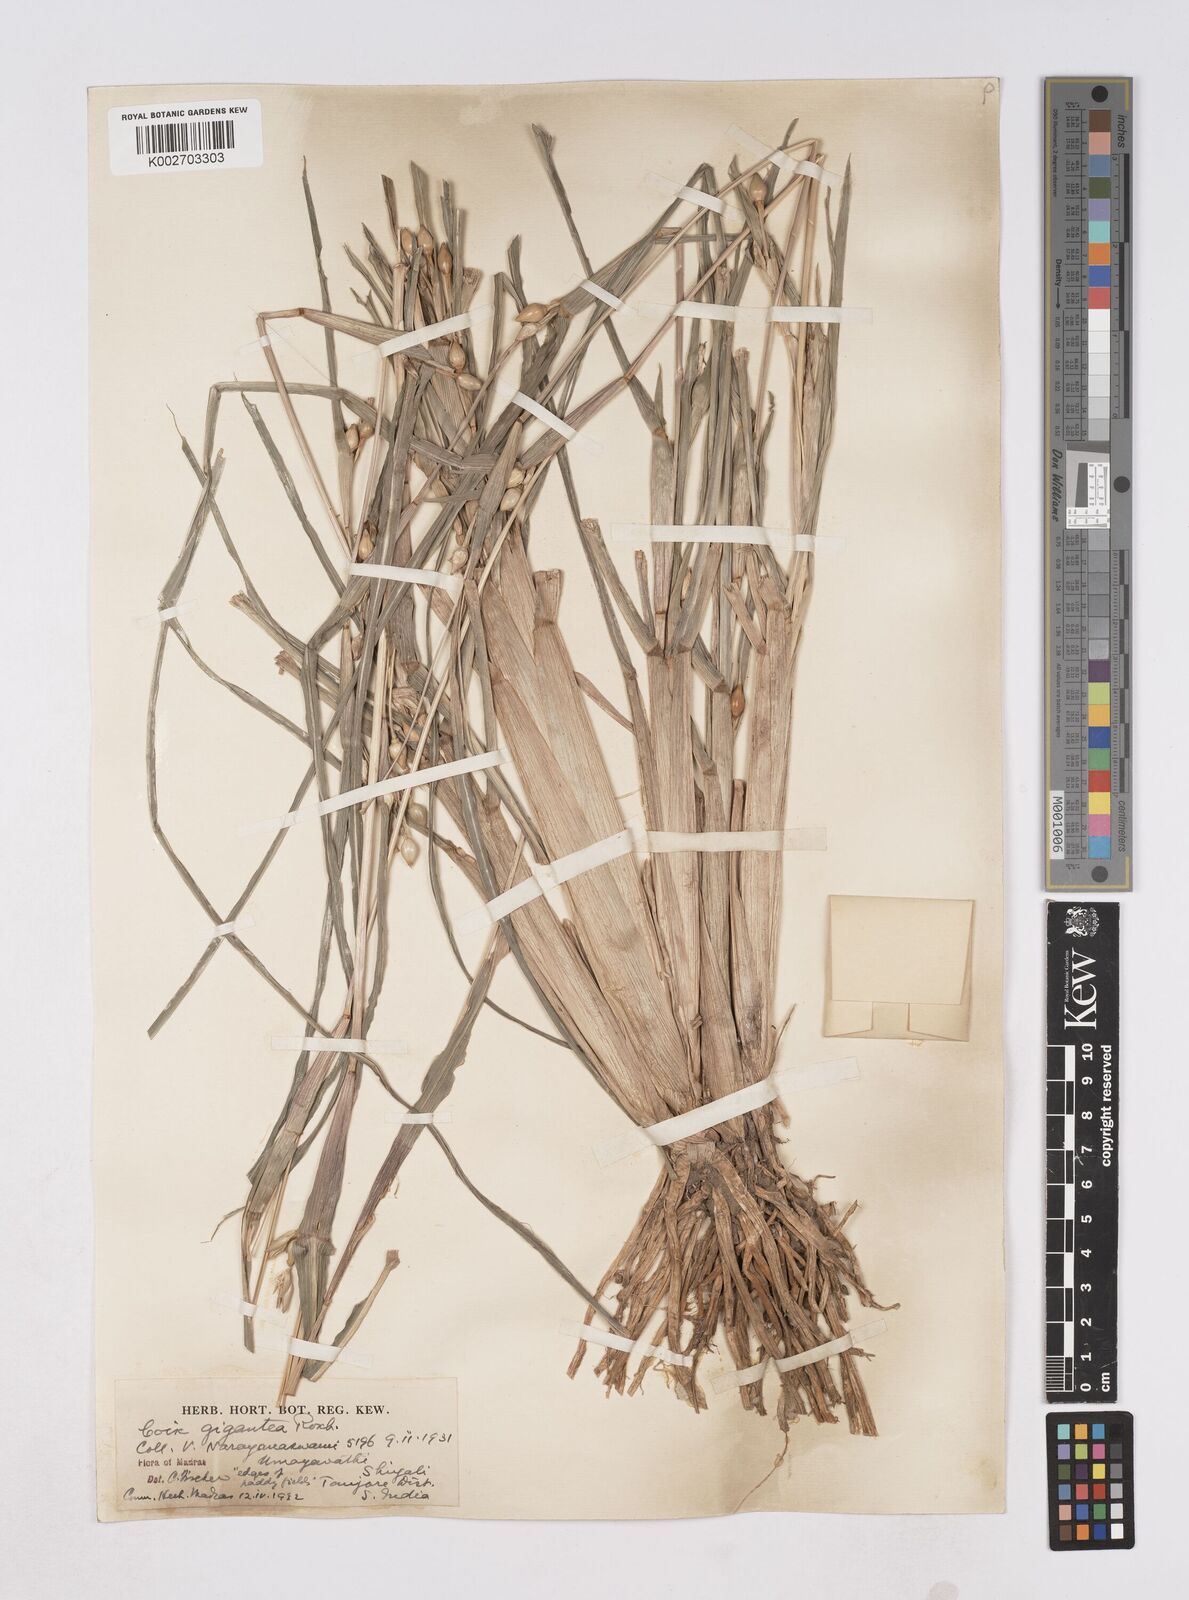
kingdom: Plantae
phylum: Tracheophyta
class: Liliopsida
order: Poales
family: Poaceae
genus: Polytoca
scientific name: Polytoca gigantea
